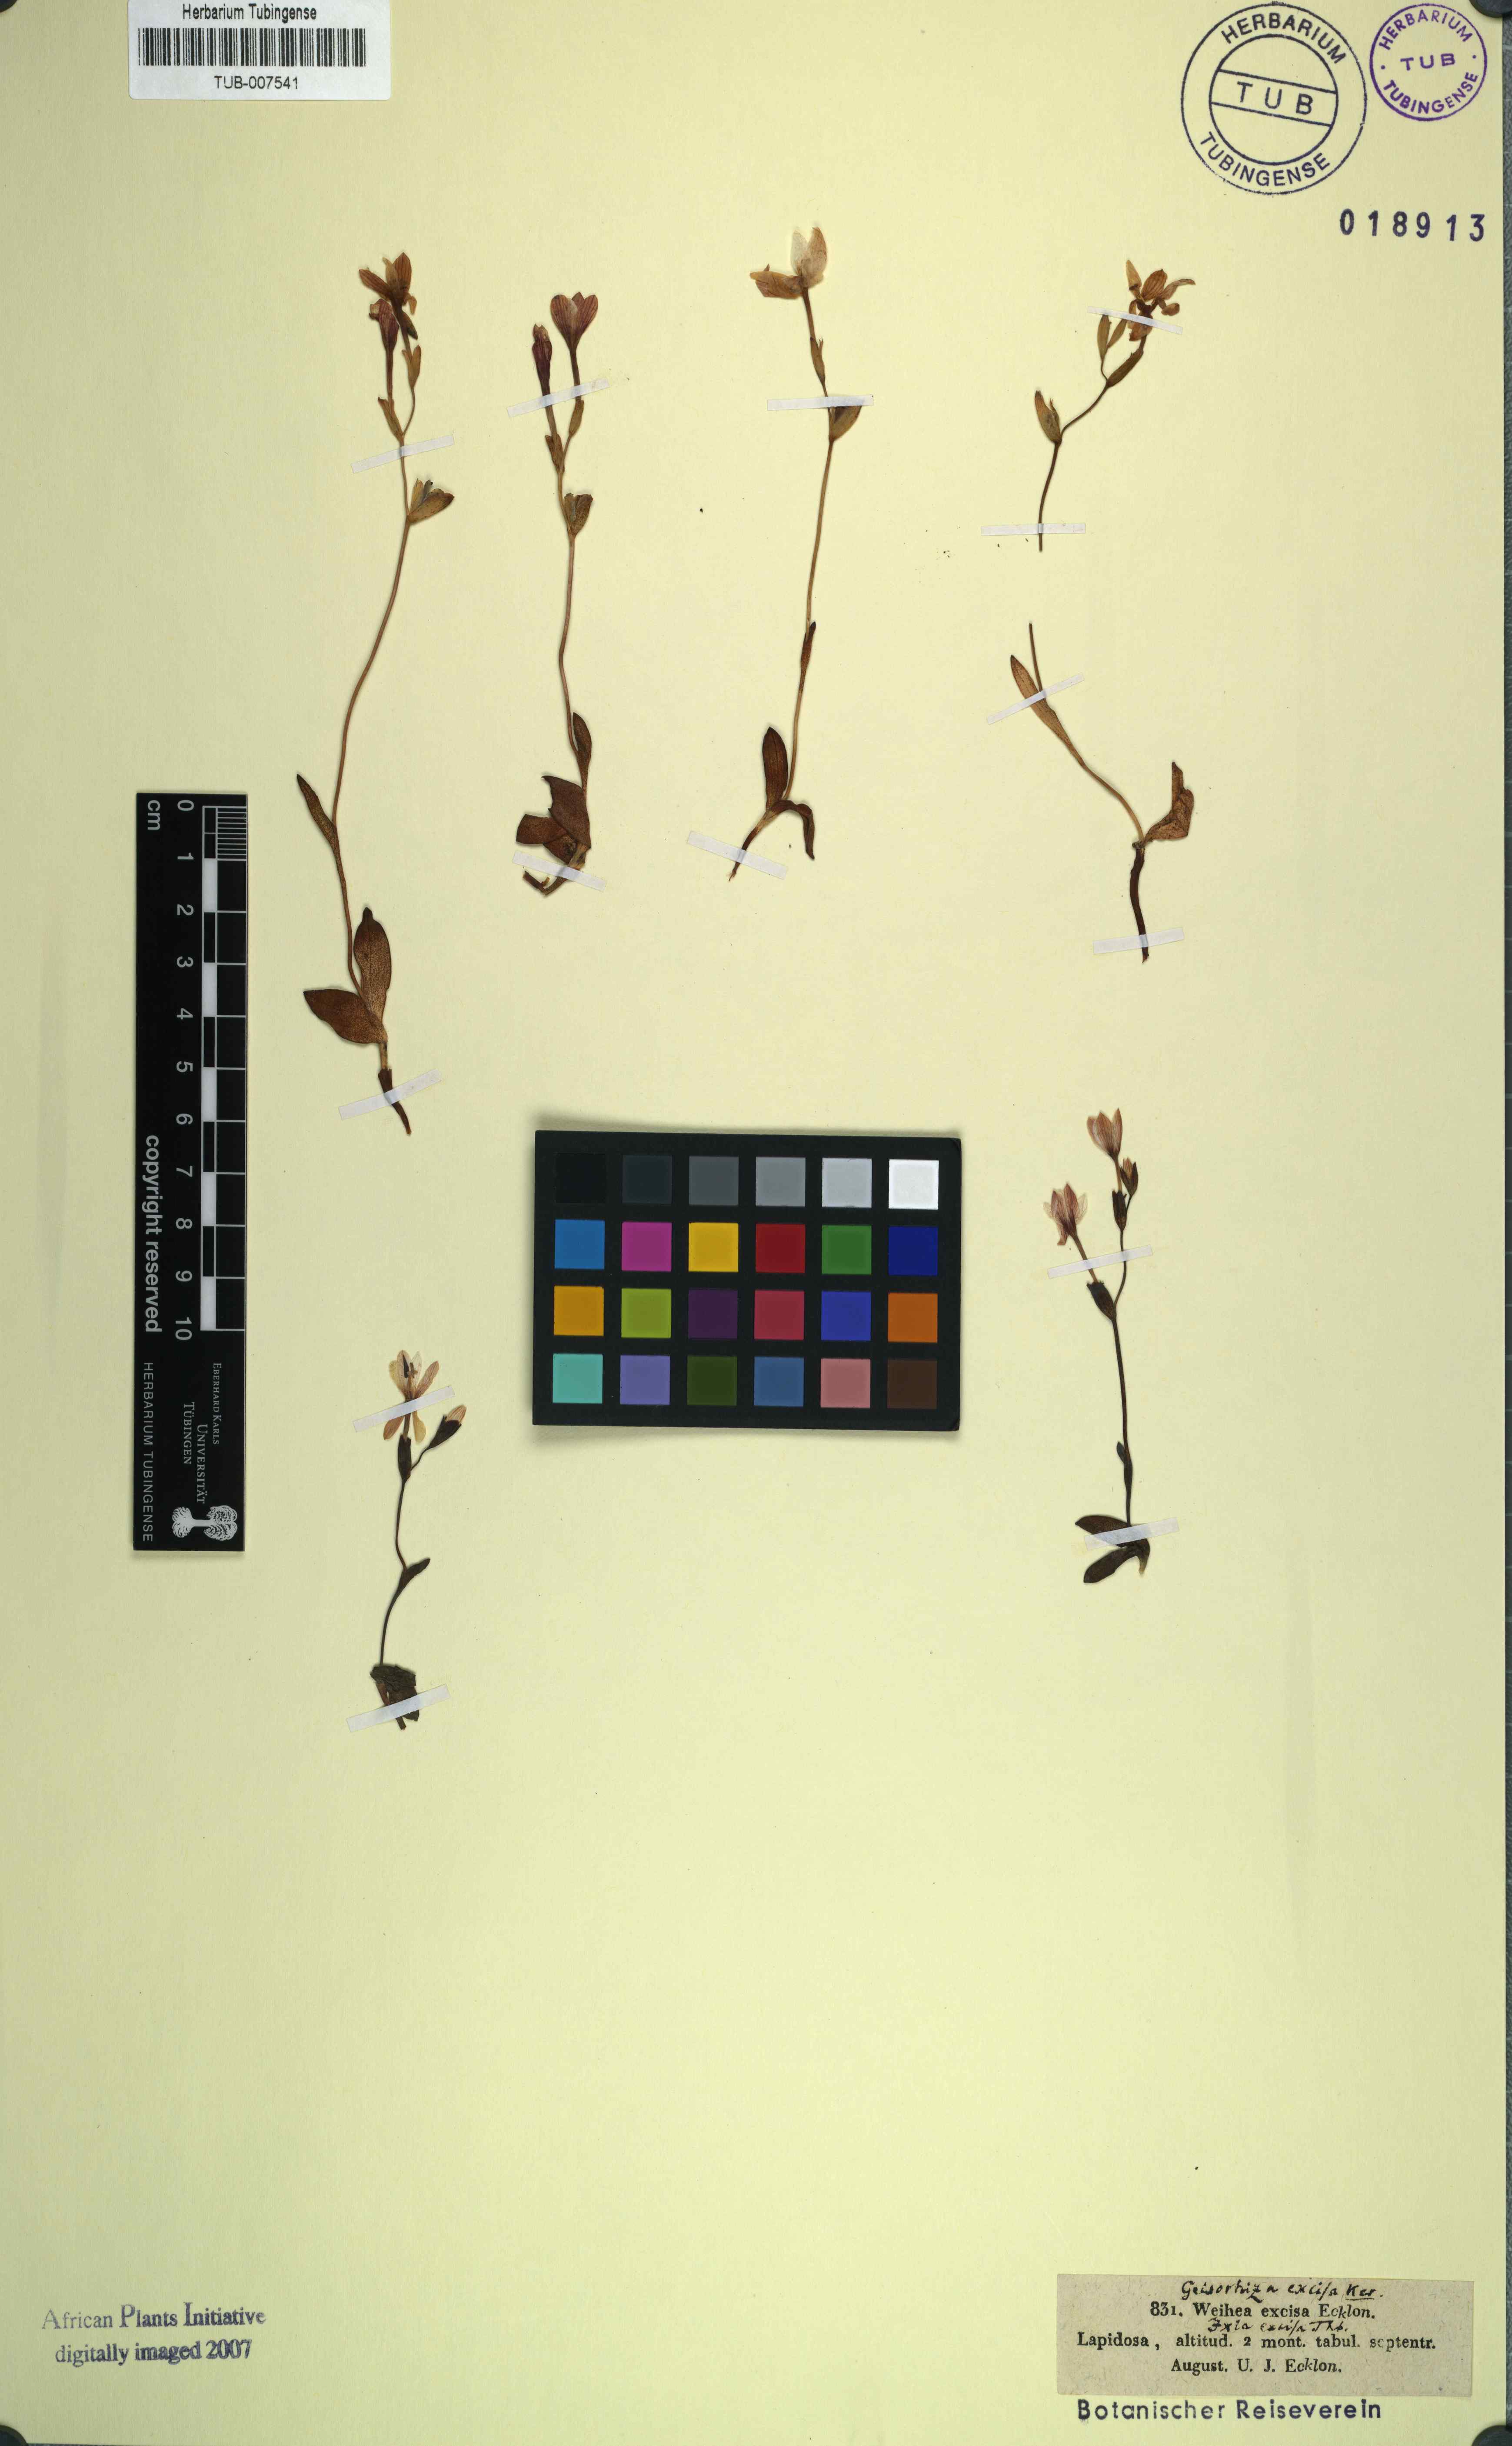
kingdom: Plantae
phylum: Tracheophyta
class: Liliopsida
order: Asparagales
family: Iridaceae
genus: Geissorhiza
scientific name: Geissorhiza ovata
